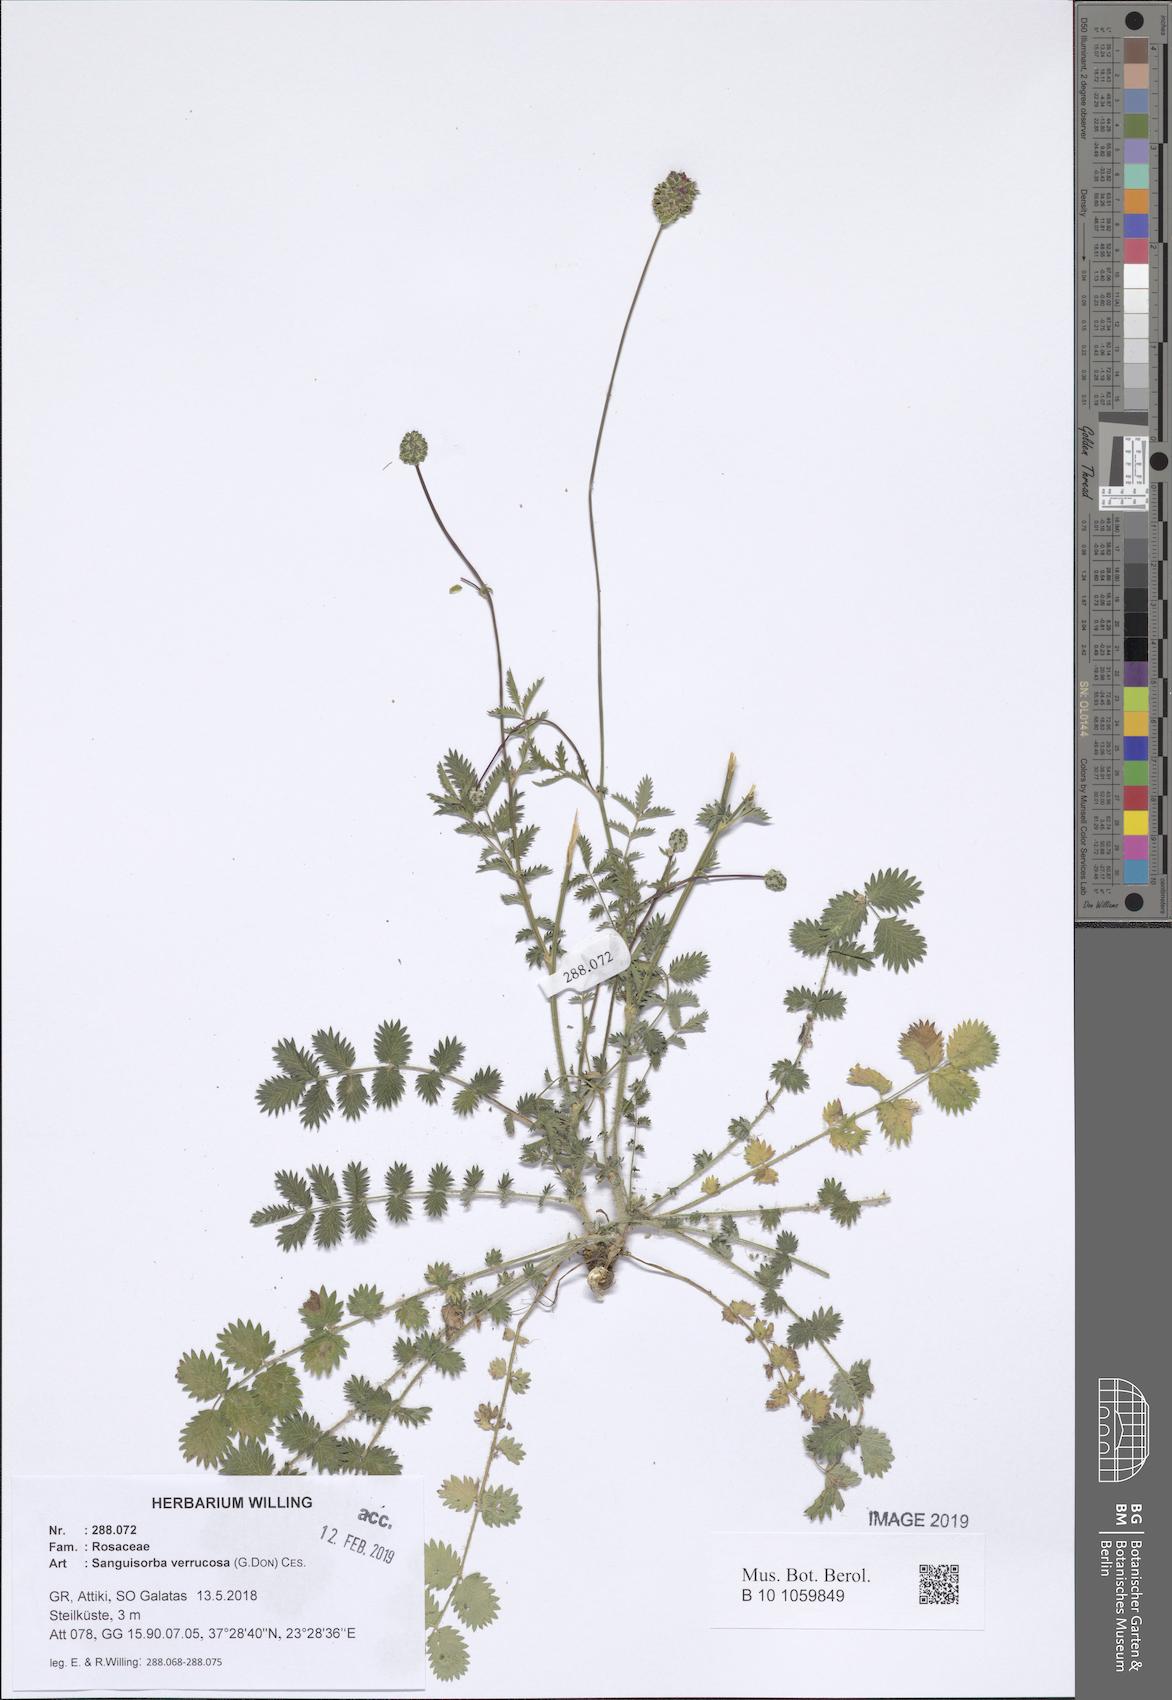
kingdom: Plantae
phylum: Tracheophyta
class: Magnoliopsida
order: Rosales
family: Rosaceae
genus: Poterium
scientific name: Poterium verrucosum
